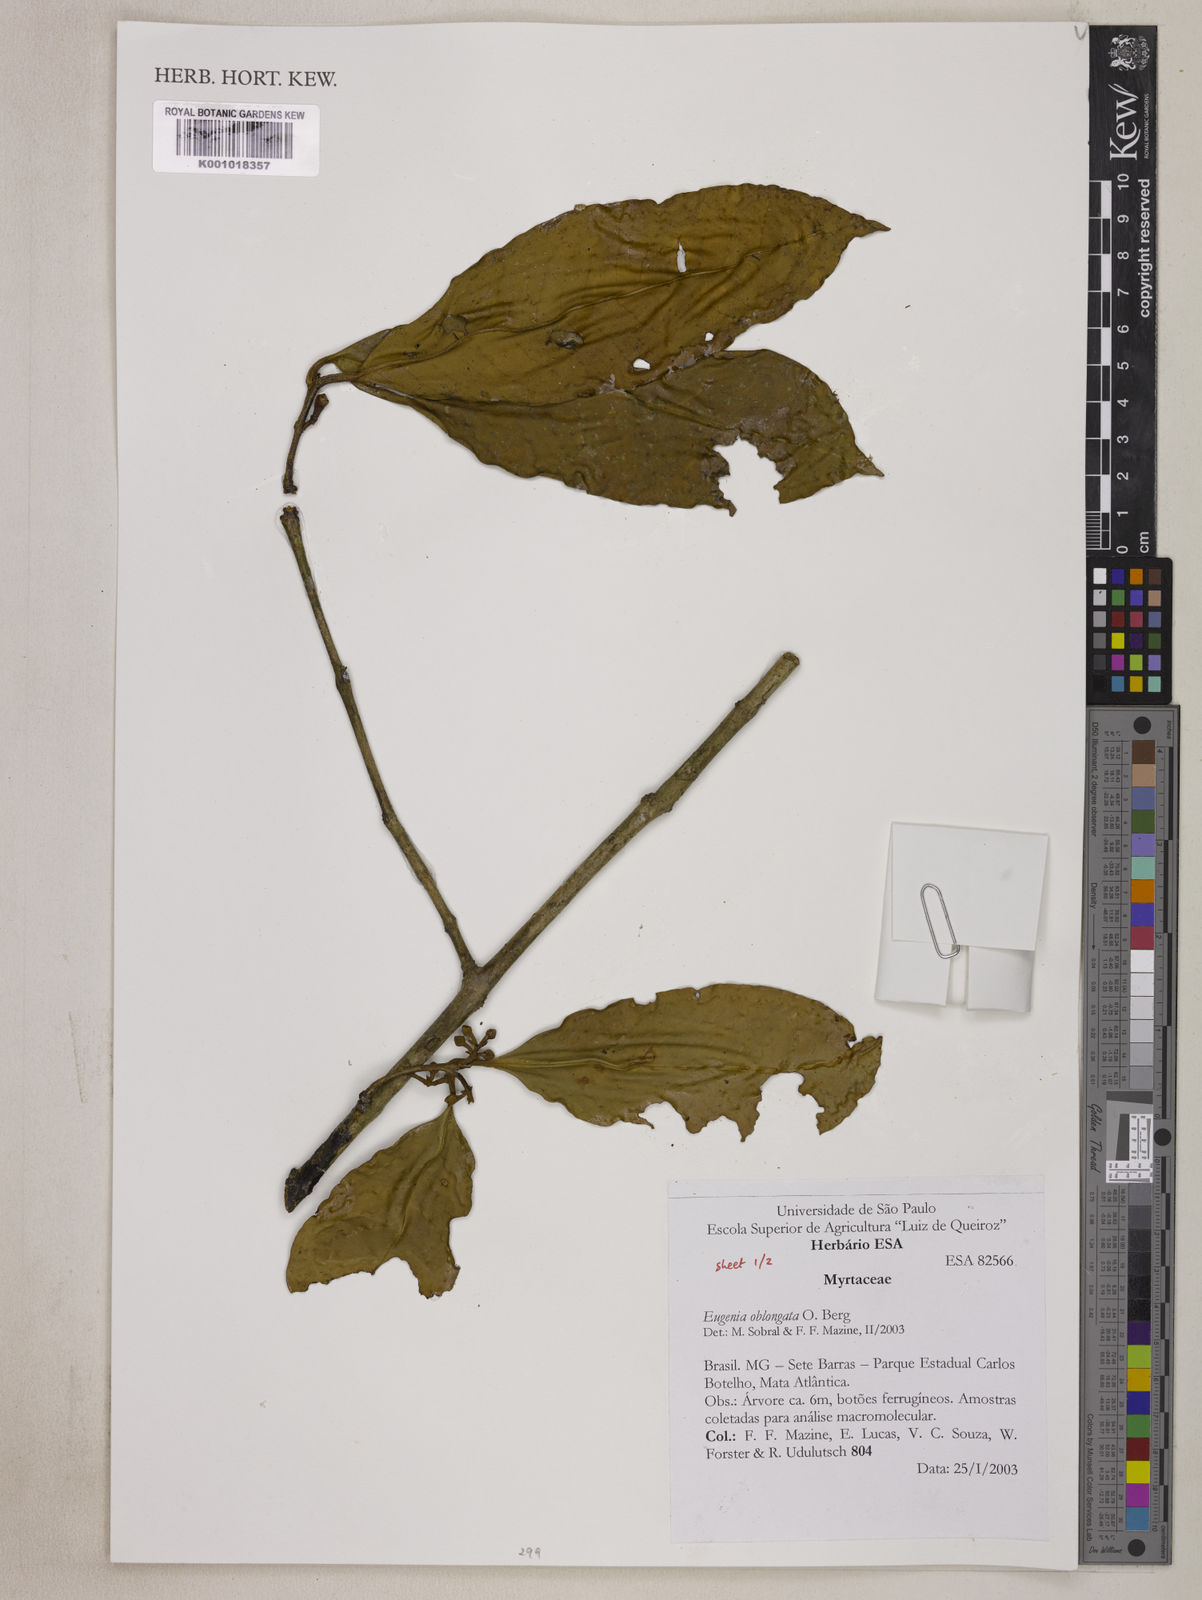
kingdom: Plantae
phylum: Tracheophyta
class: Magnoliopsida
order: Myrtales
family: Myrtaceae
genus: Eugenia
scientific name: Eugenia oblongata
